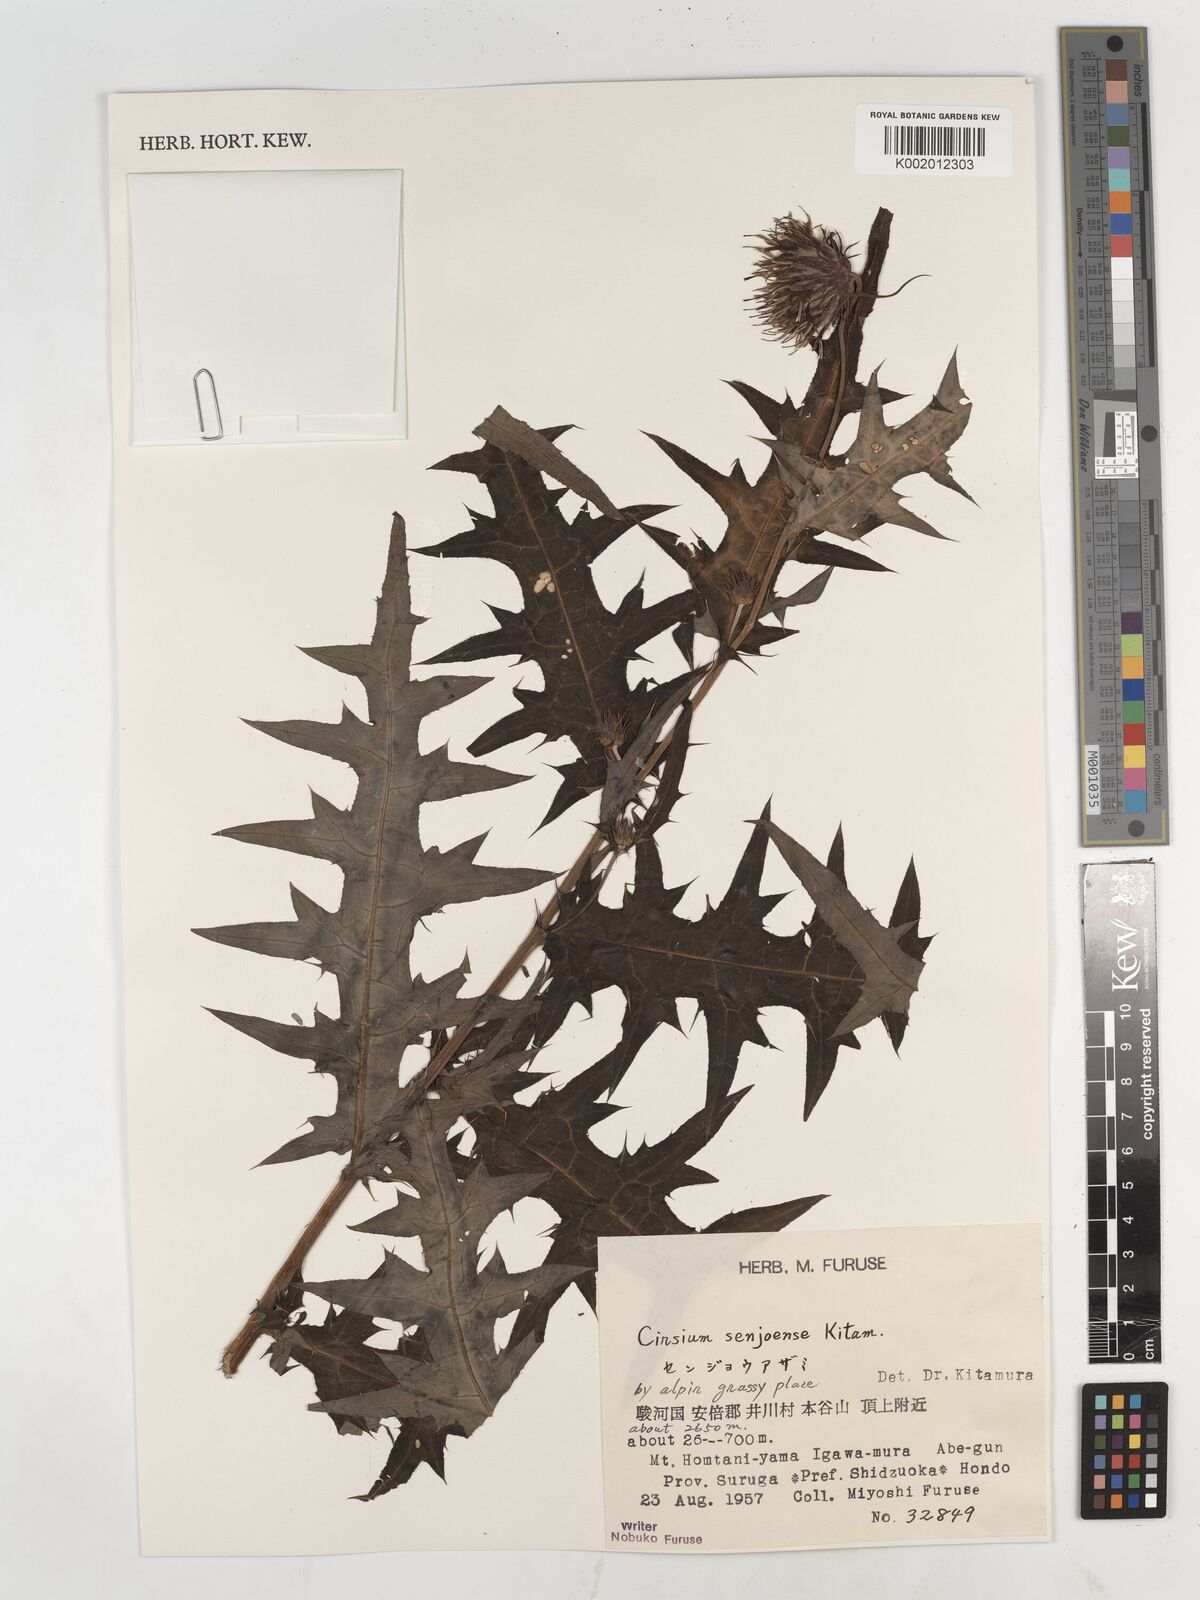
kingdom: Plantae
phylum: Tracheophyta
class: Magnoliopsida
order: Asterales
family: Asteraceae
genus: Cirsium
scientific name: Cirsium senjoense
